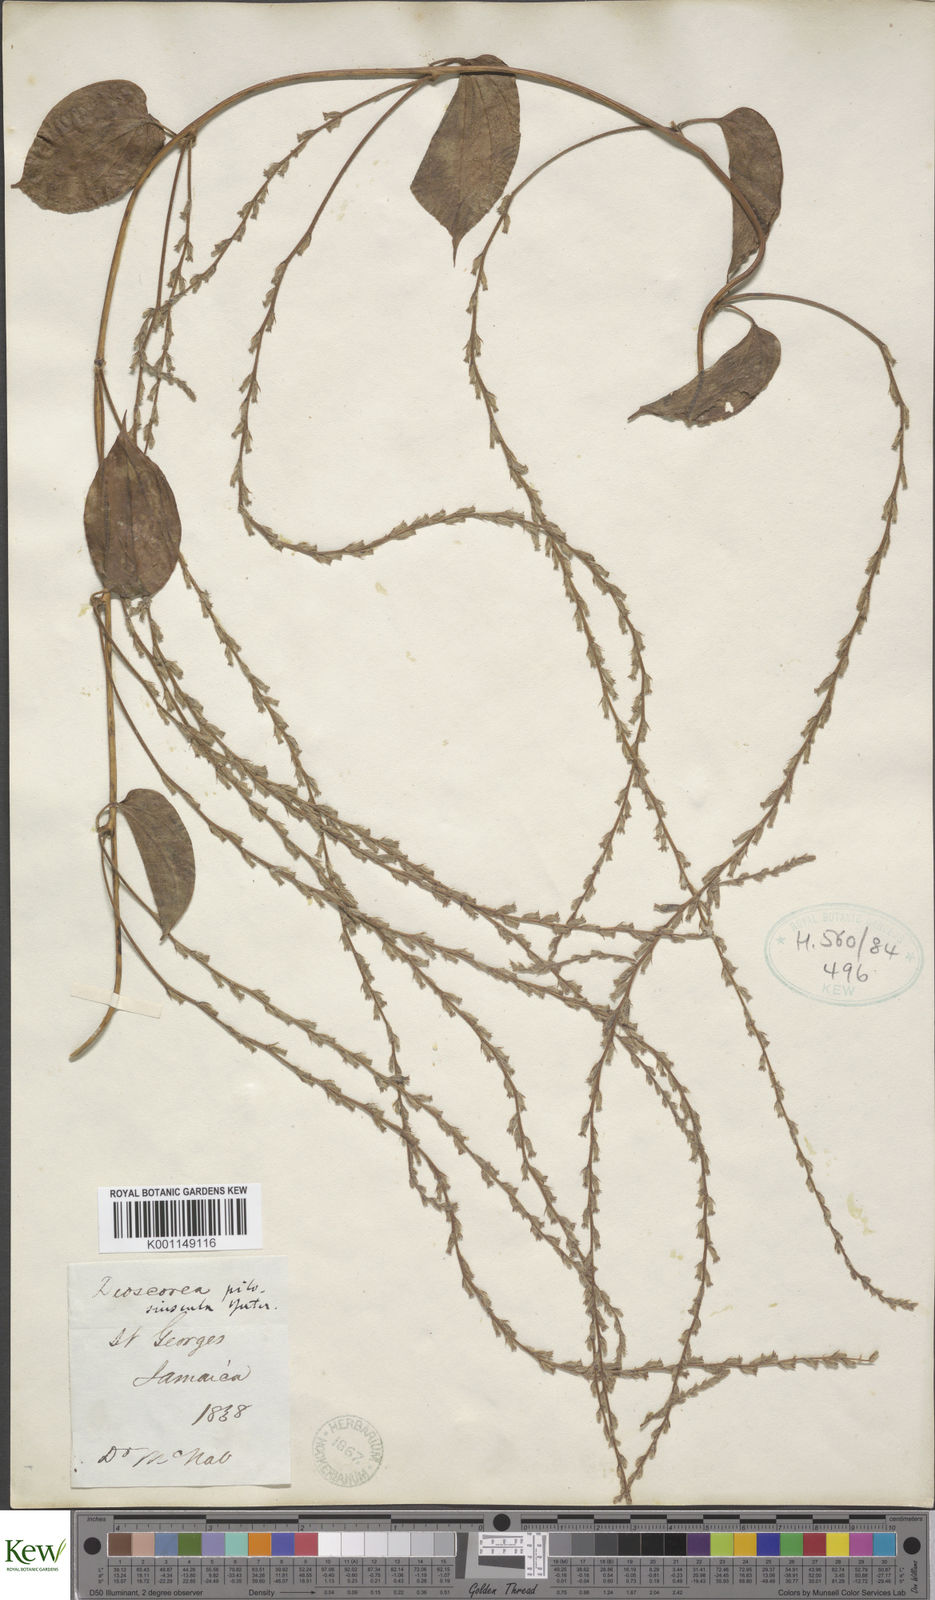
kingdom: Plantae
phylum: Tracheophyta
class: Liliopsida
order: Dioscoreales
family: Dioscoreaceae
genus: Dioscorea
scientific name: Dioscorea pilosiuscula
